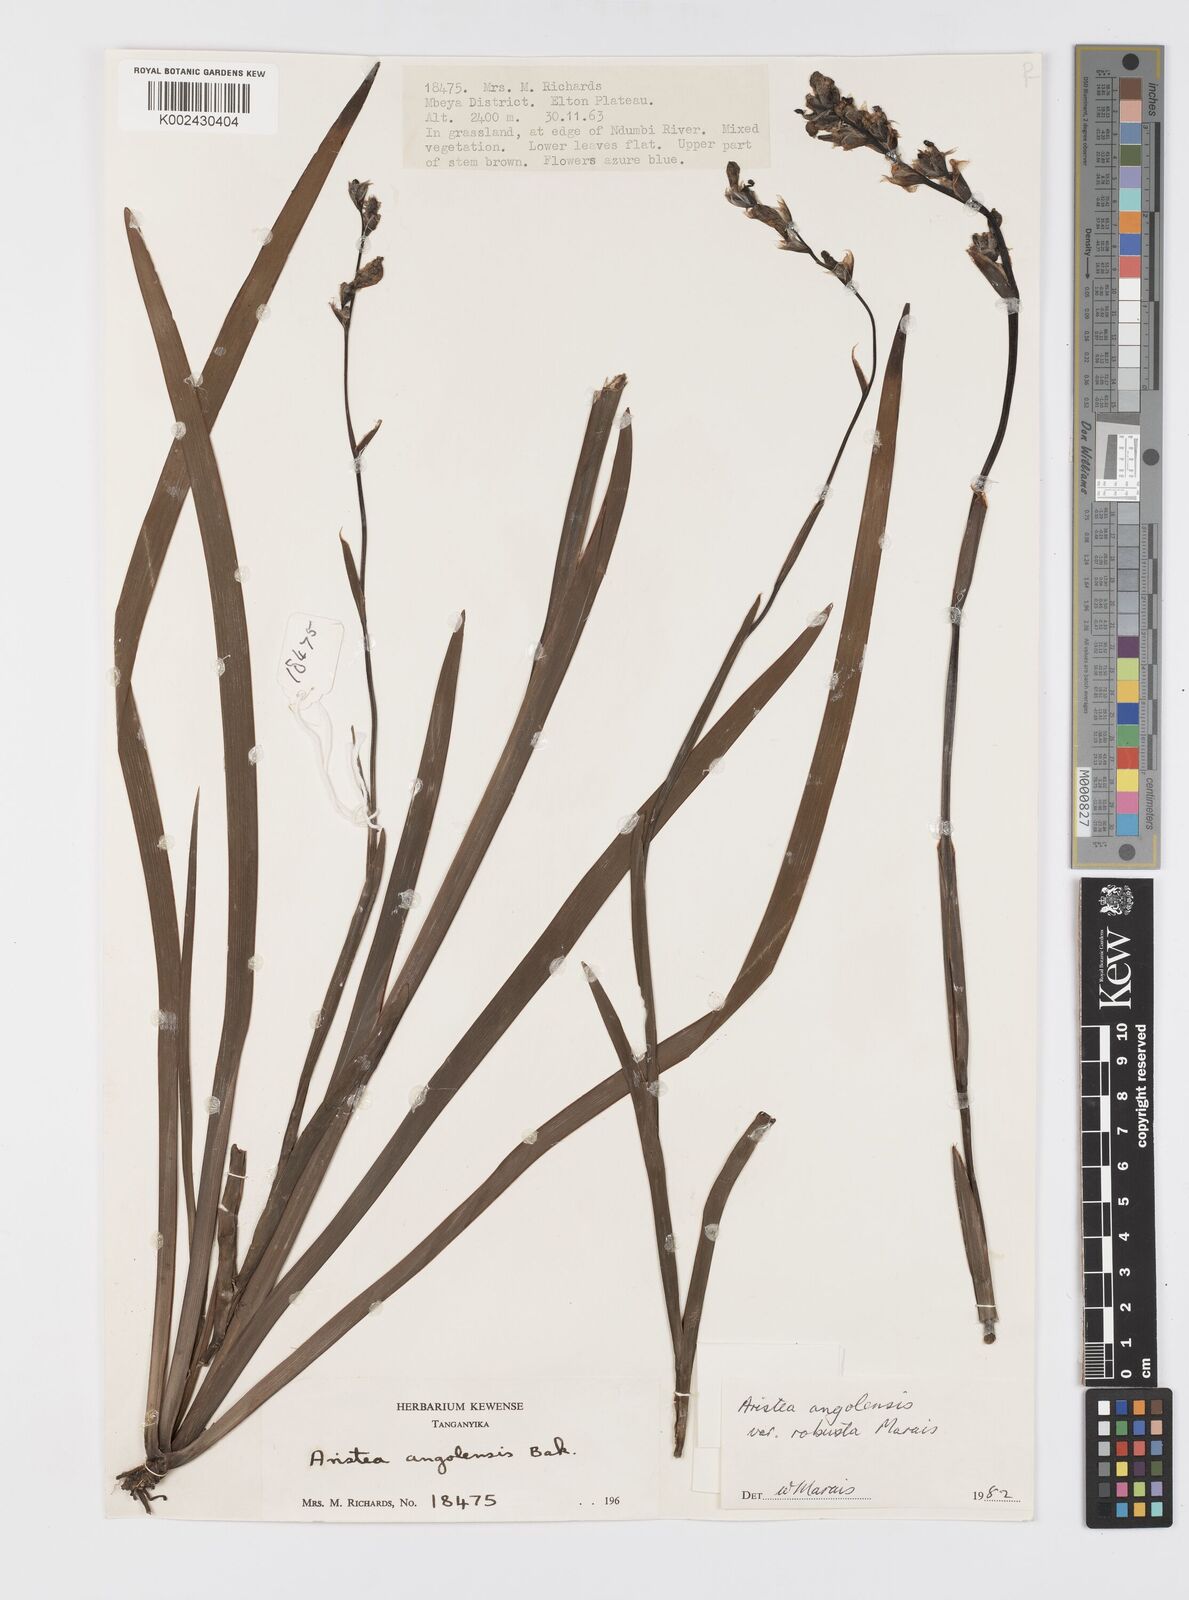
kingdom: Plantae
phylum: Tracheophyta
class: Liliopsida
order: Asparagales
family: Iridaceae
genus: Aristea
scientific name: Aristea angolensis
